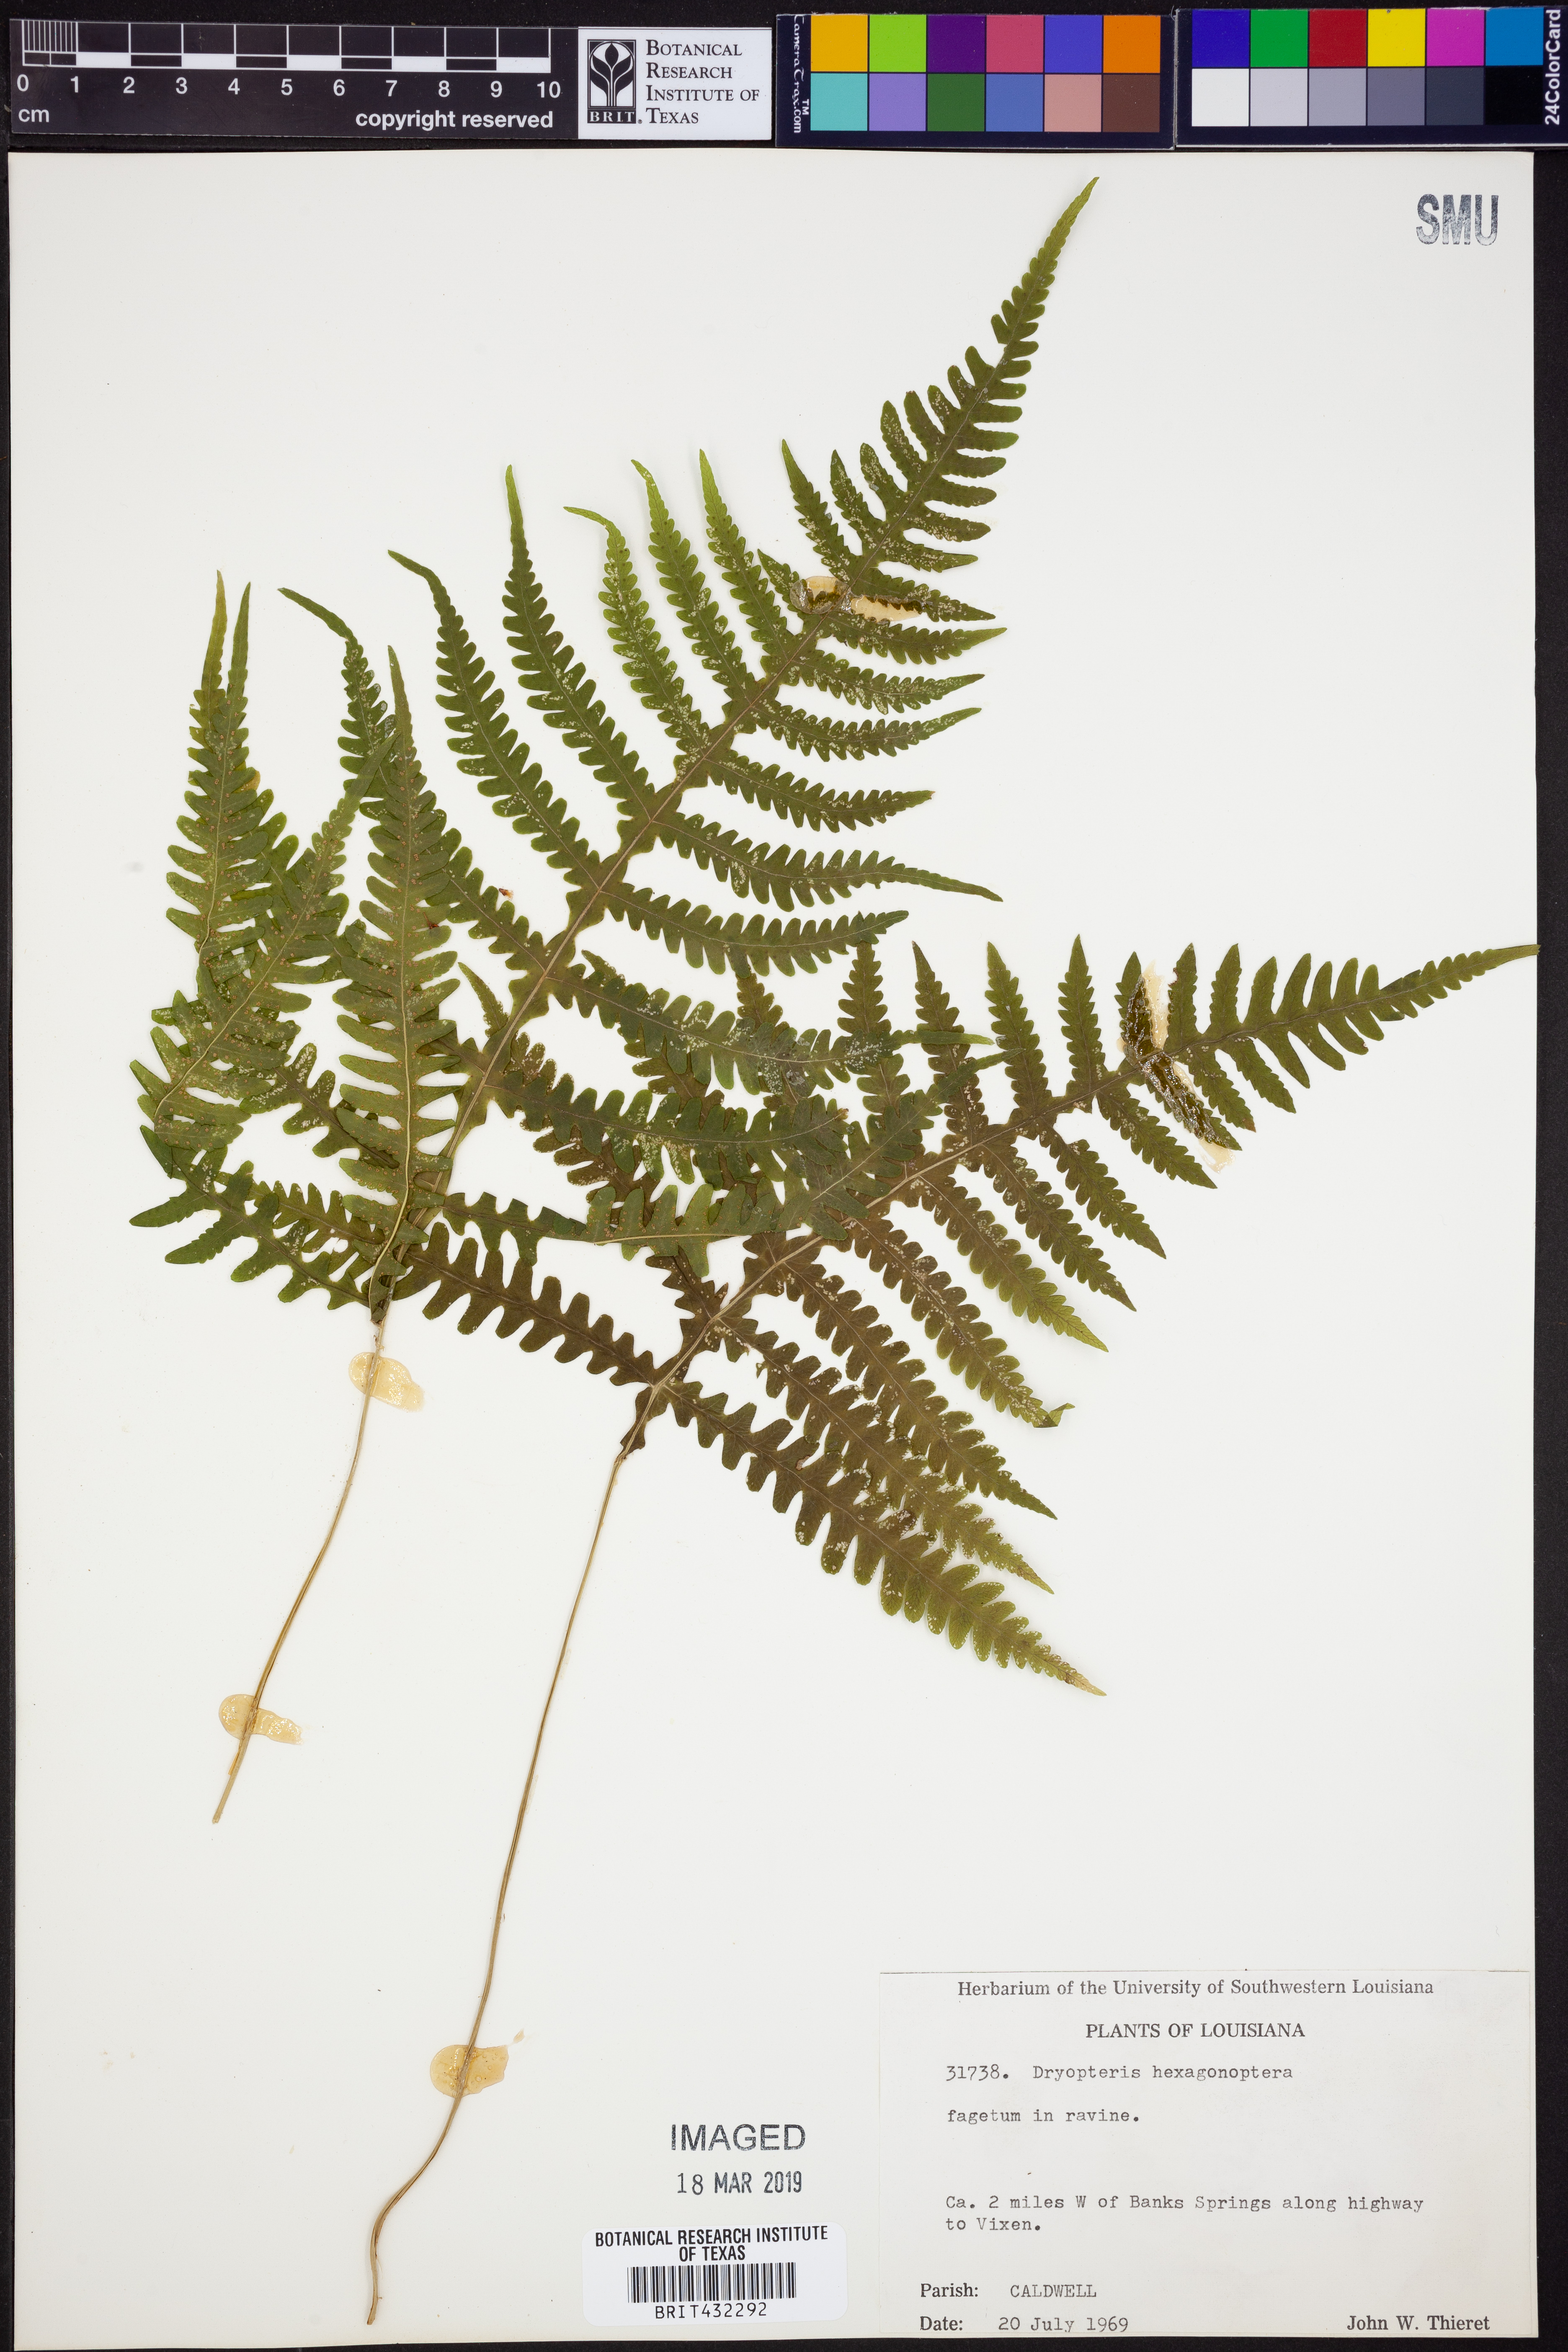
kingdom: Plantae
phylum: Tracheophyta
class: Polypodiopsida
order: Polypodiales
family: Dryopteridaceae
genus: Dryopteris
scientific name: Dryopteris hexagonaptera
